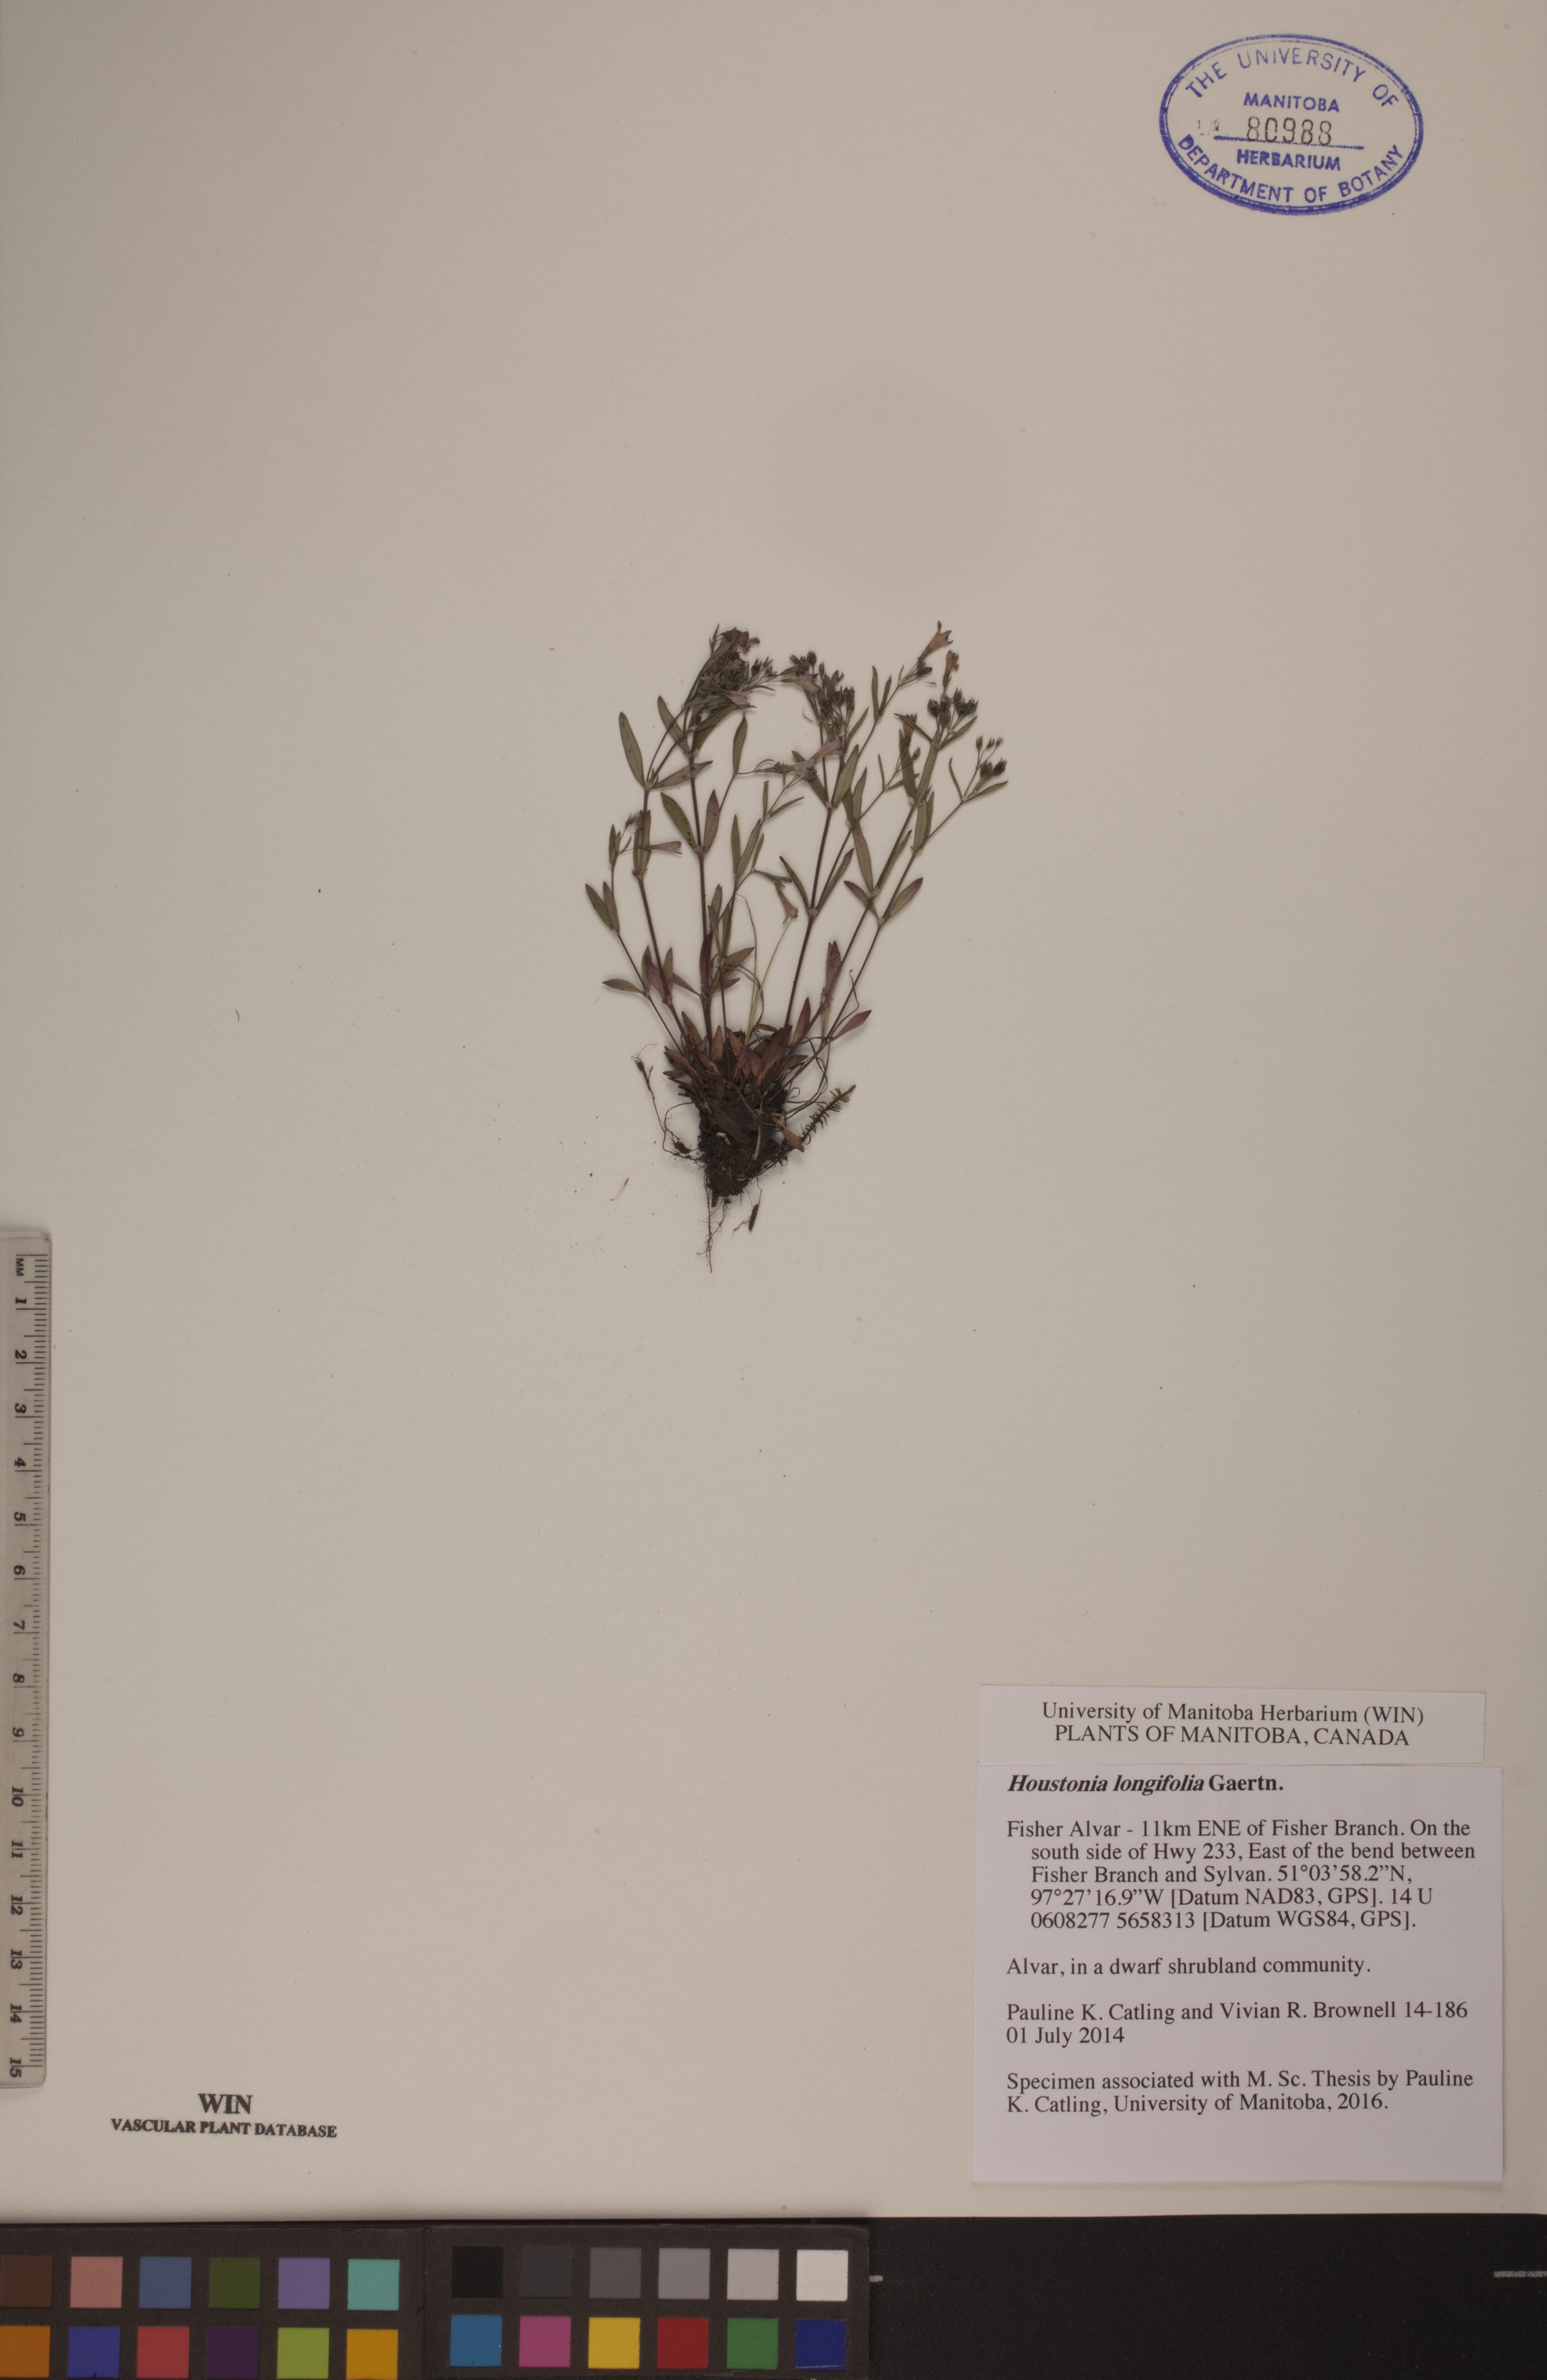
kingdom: Plantae
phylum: Tracheophyta
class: Magnoliopsida
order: Gentianales
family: Rubiaceae
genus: Houstonia
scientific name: Houstonia longifolia
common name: Long-leaved bluets
